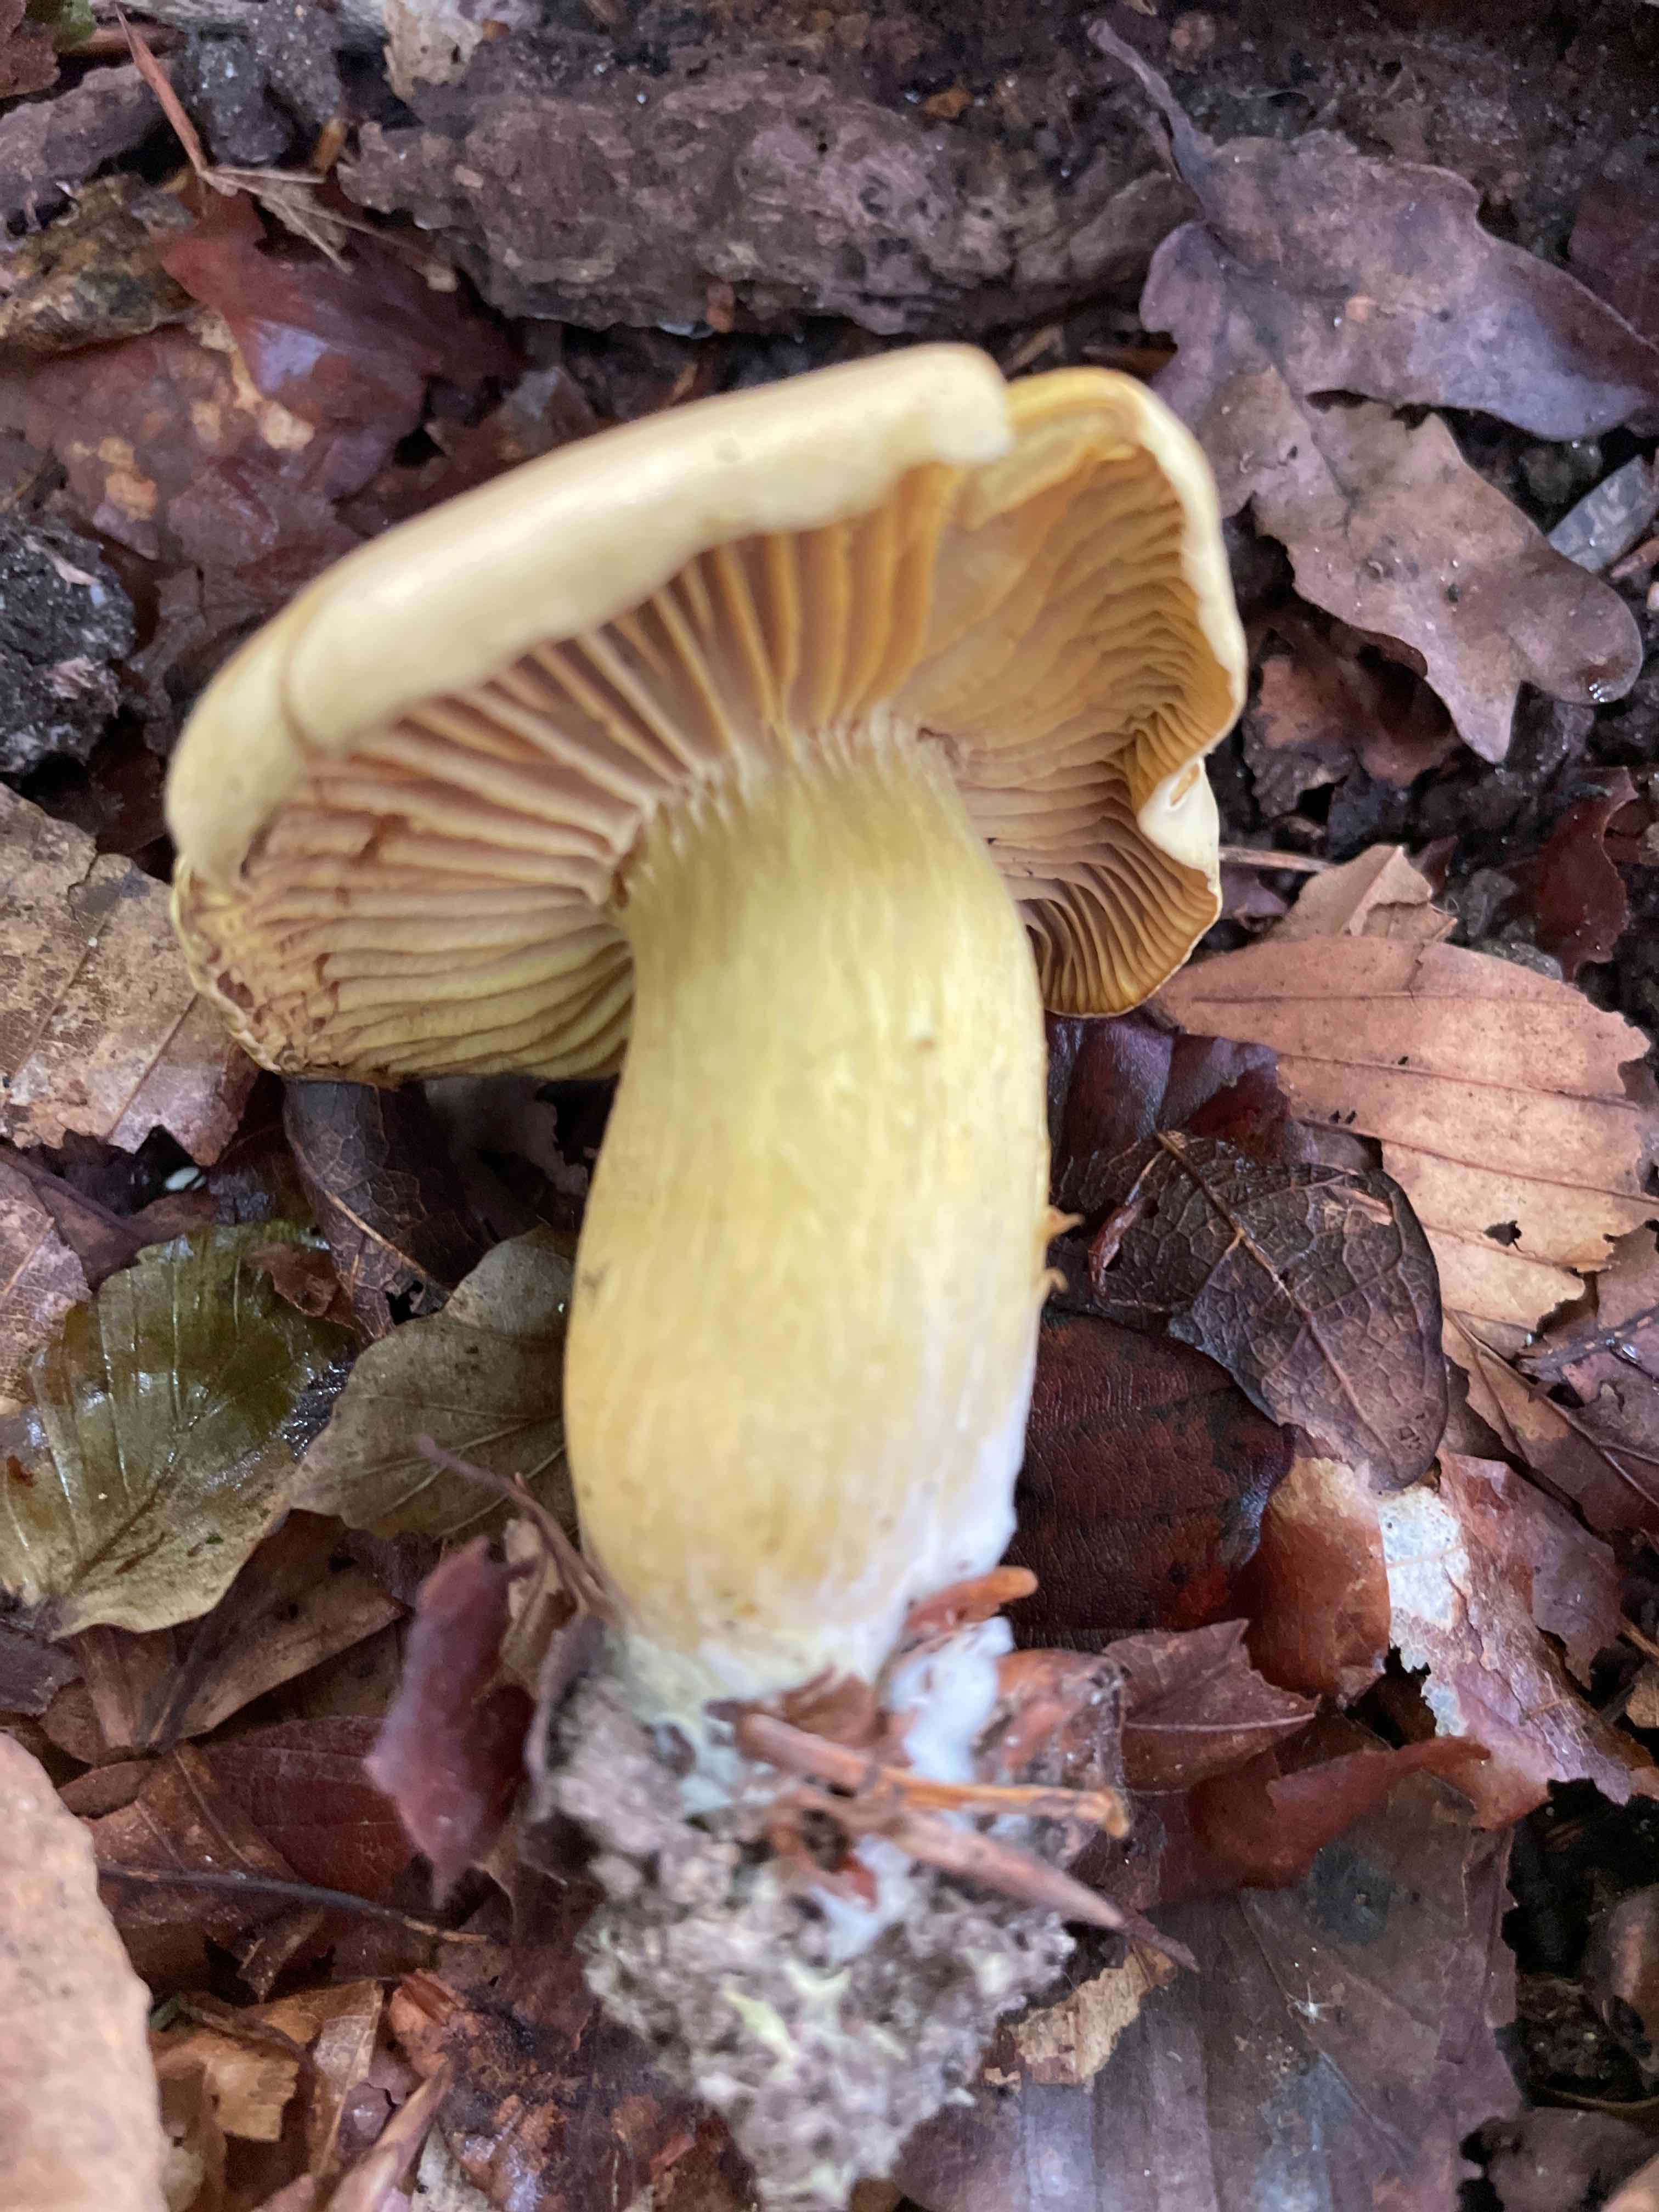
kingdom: Fungi
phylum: Basidiomycota
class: Agaricomycetes
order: Agaricales
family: Tricholomataceae
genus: Tricholoma
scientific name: Tricholoma sulphureum
